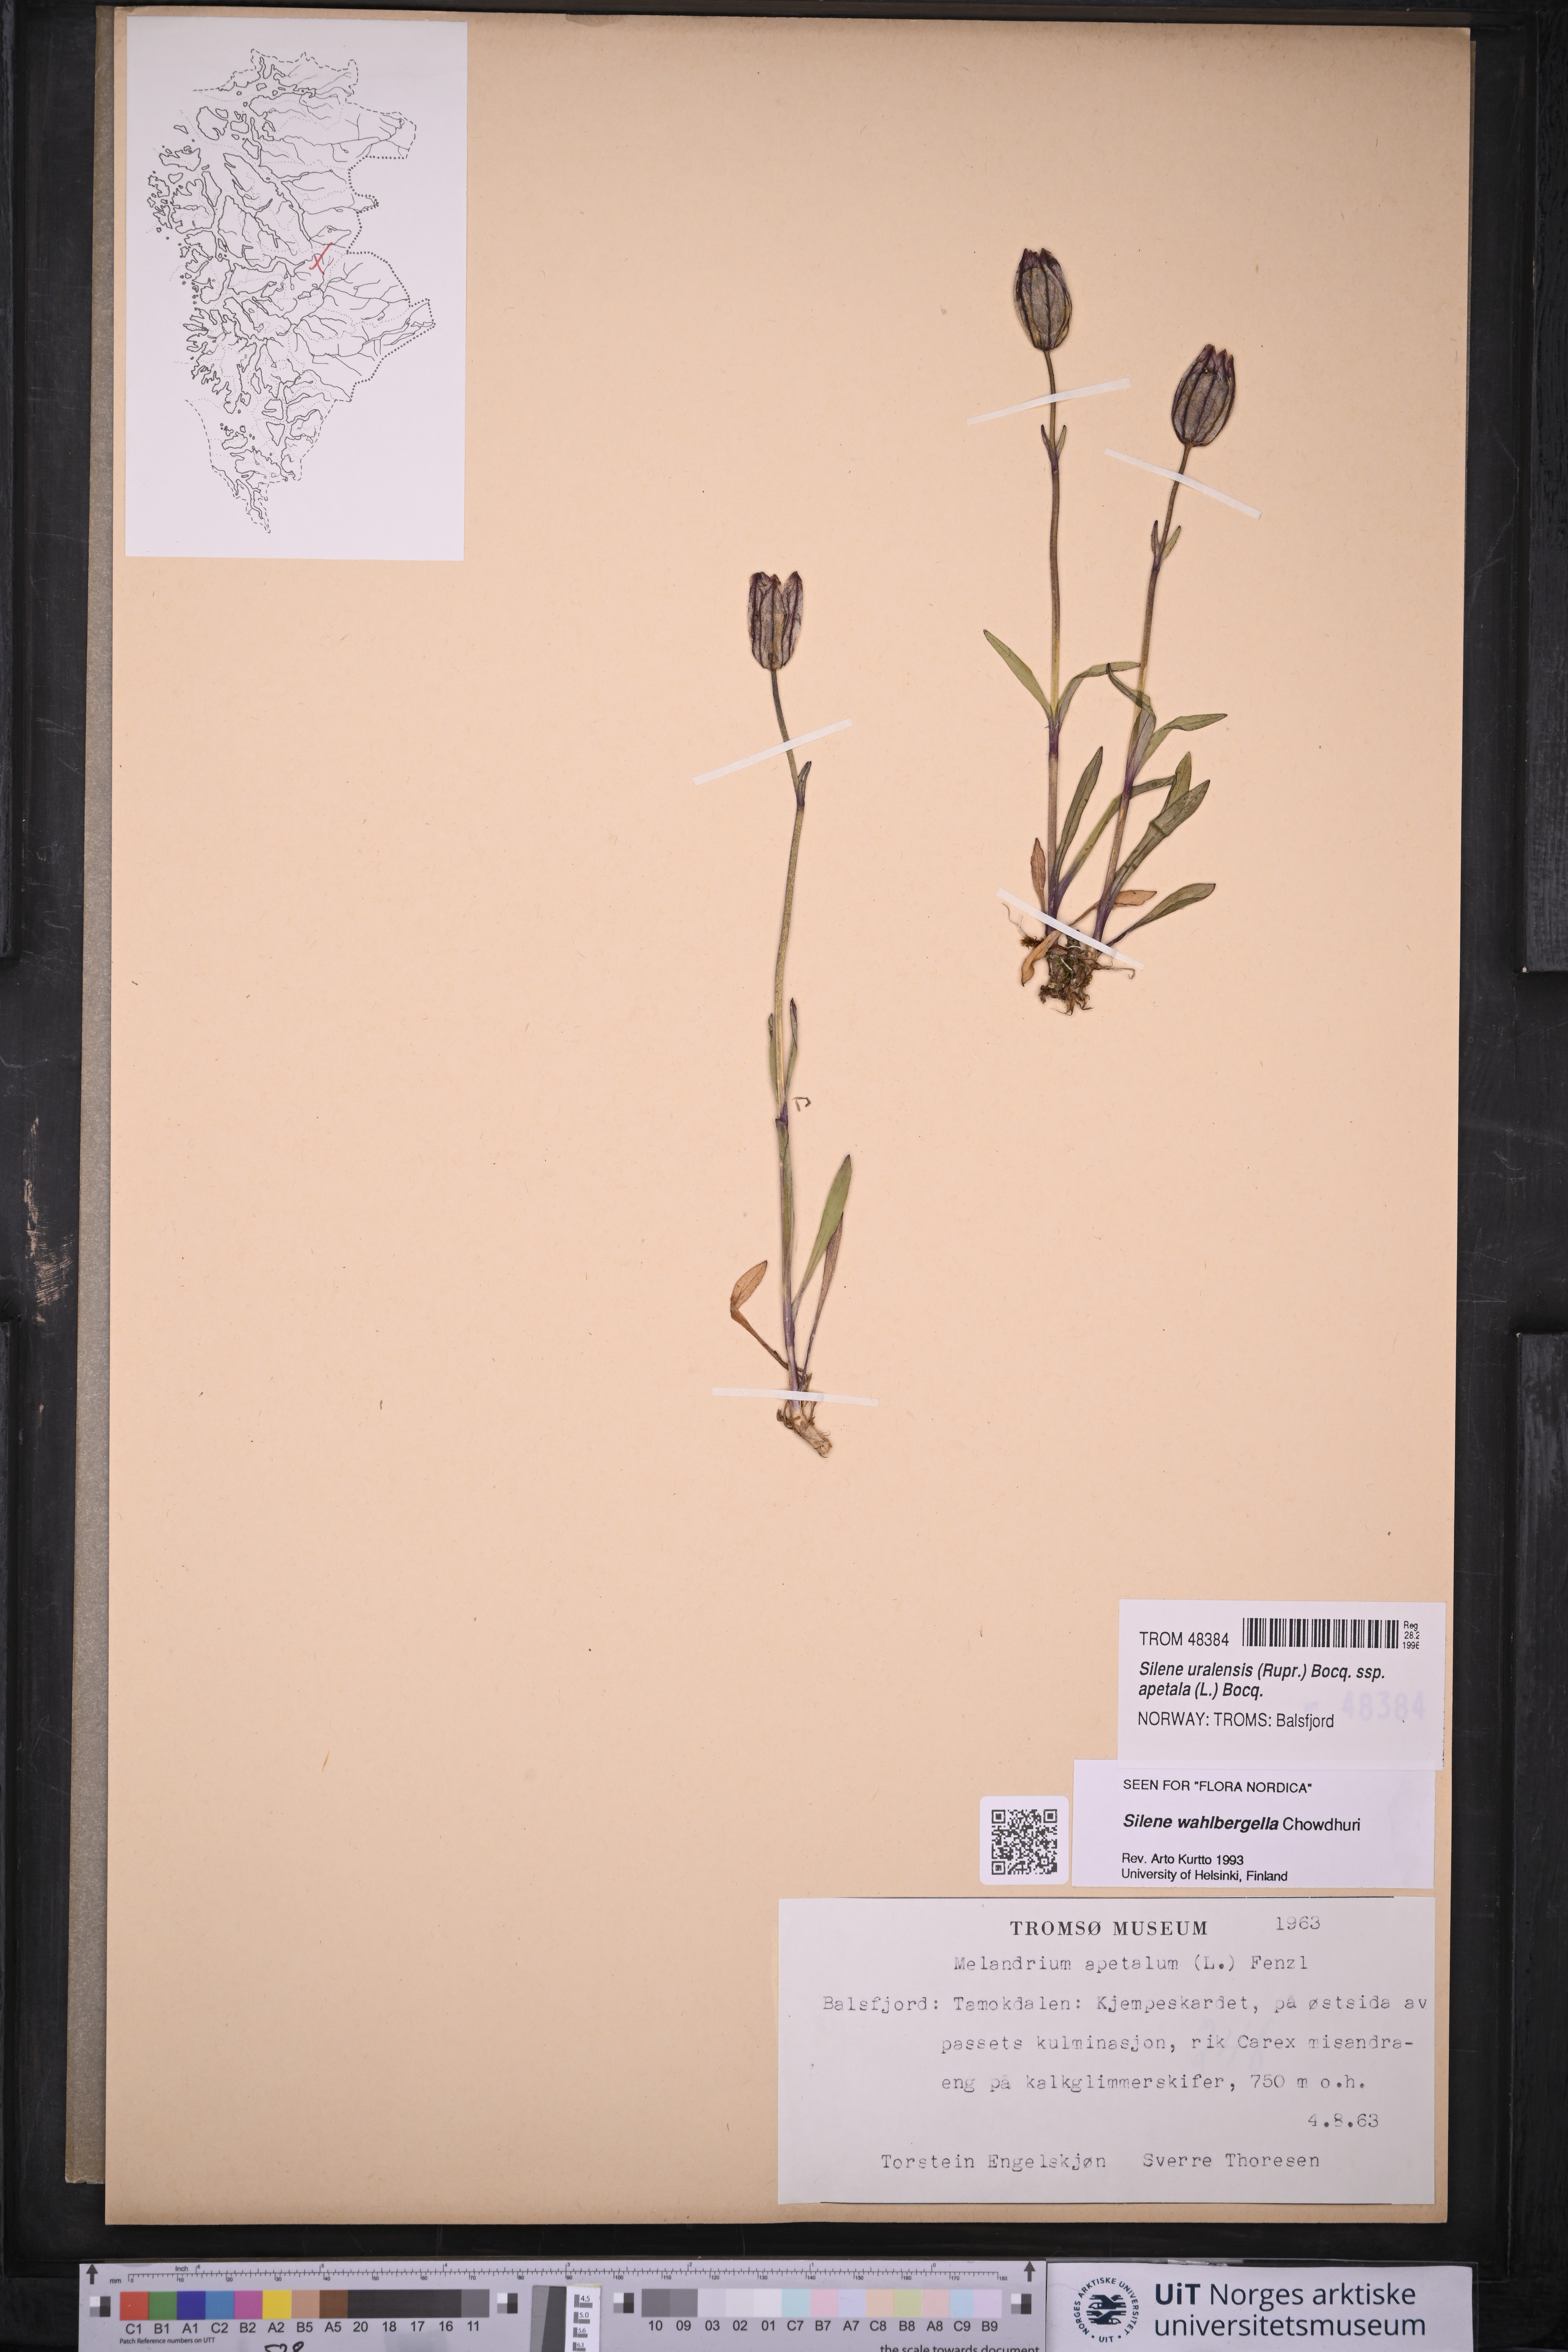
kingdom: Plantae
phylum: Tracheophyta
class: Magnoliopsida
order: Caryophyllales
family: Caryophyllaceae
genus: Silene
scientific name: Silene wahlbergella
